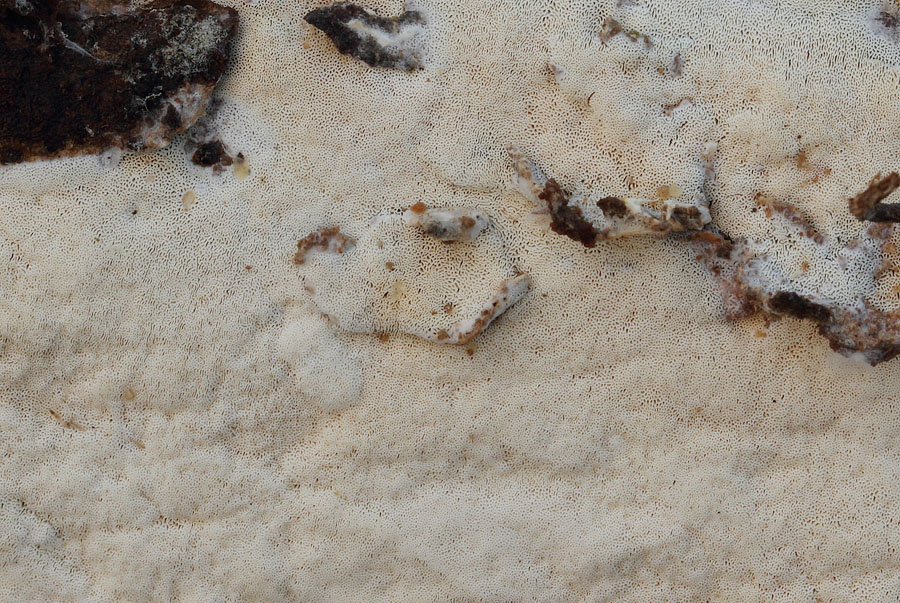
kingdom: Fungi
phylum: Basidiomycota
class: Agaricomycetes
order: Hymenochaetales
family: Rickenellaceae
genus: Sidera
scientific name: Sidera vulgaris
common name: fin flødeporesvamp
